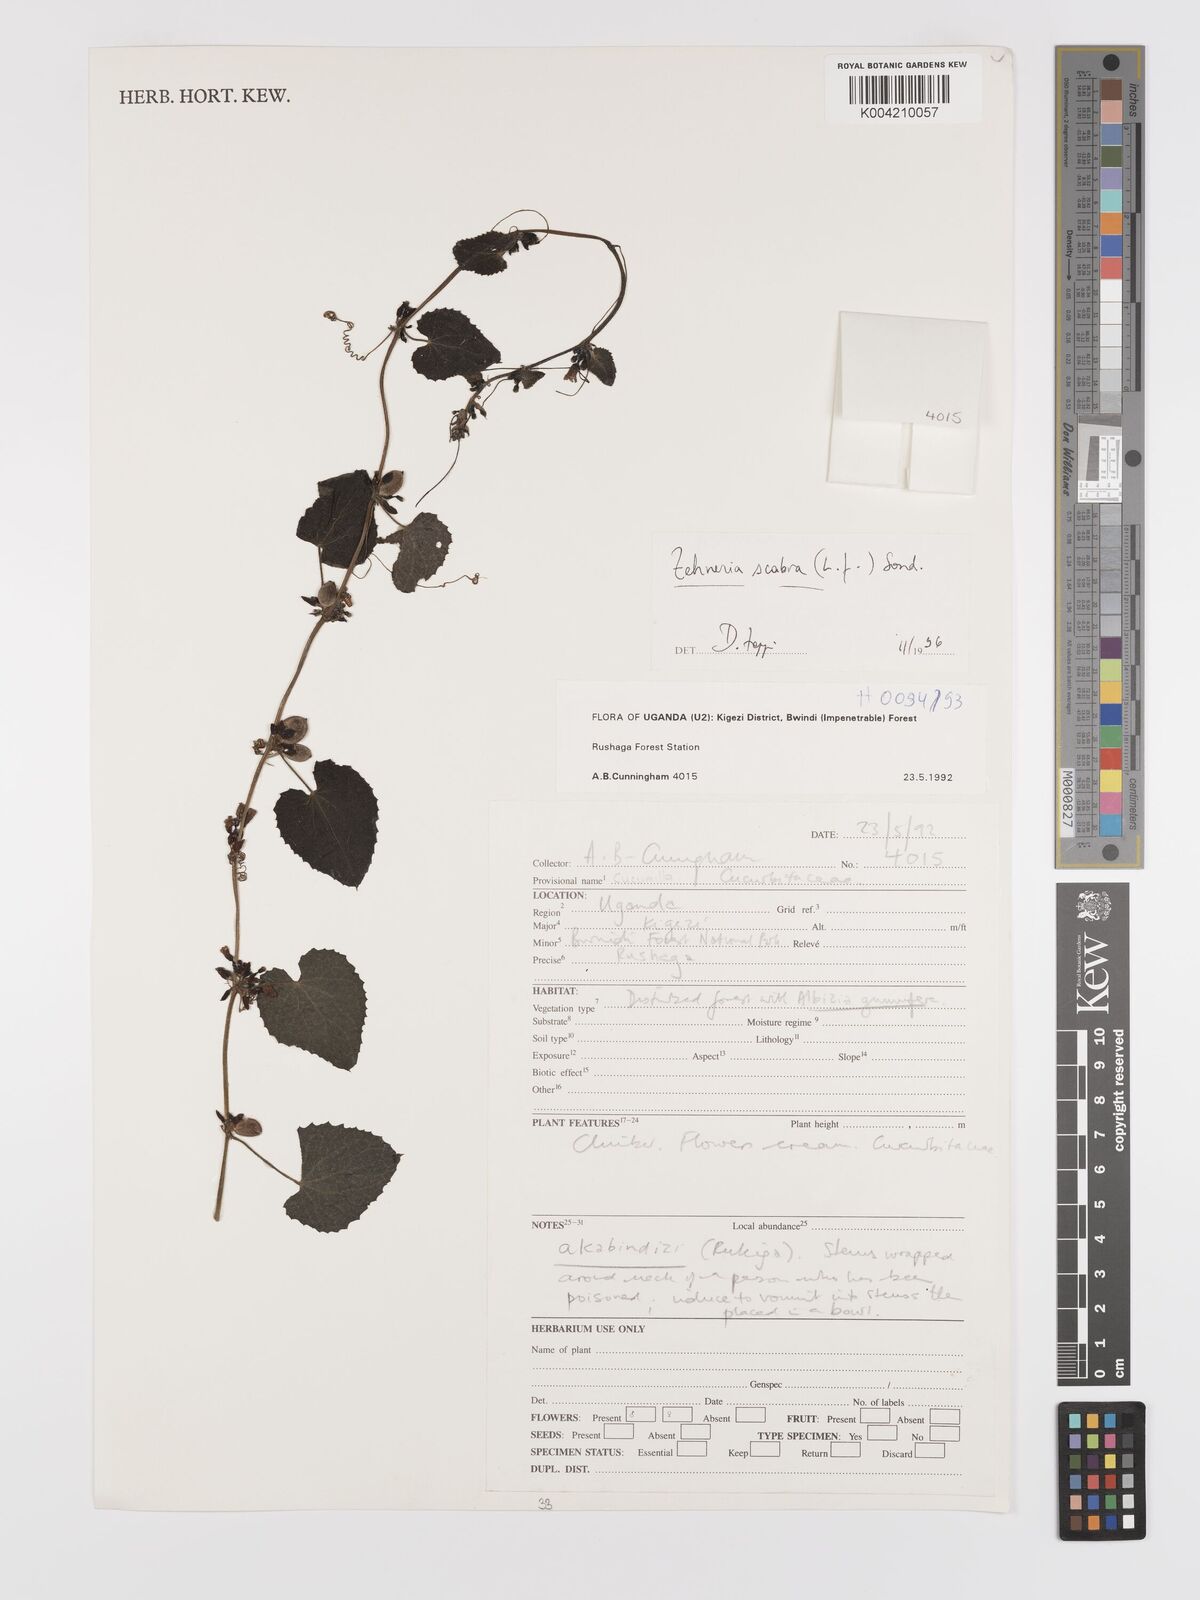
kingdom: Plantae
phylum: Tracheophyta
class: Magnoliopsida
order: Cucurbitales
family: Cucurbitaceae
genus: Zehneria
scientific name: Zehneria scabra
